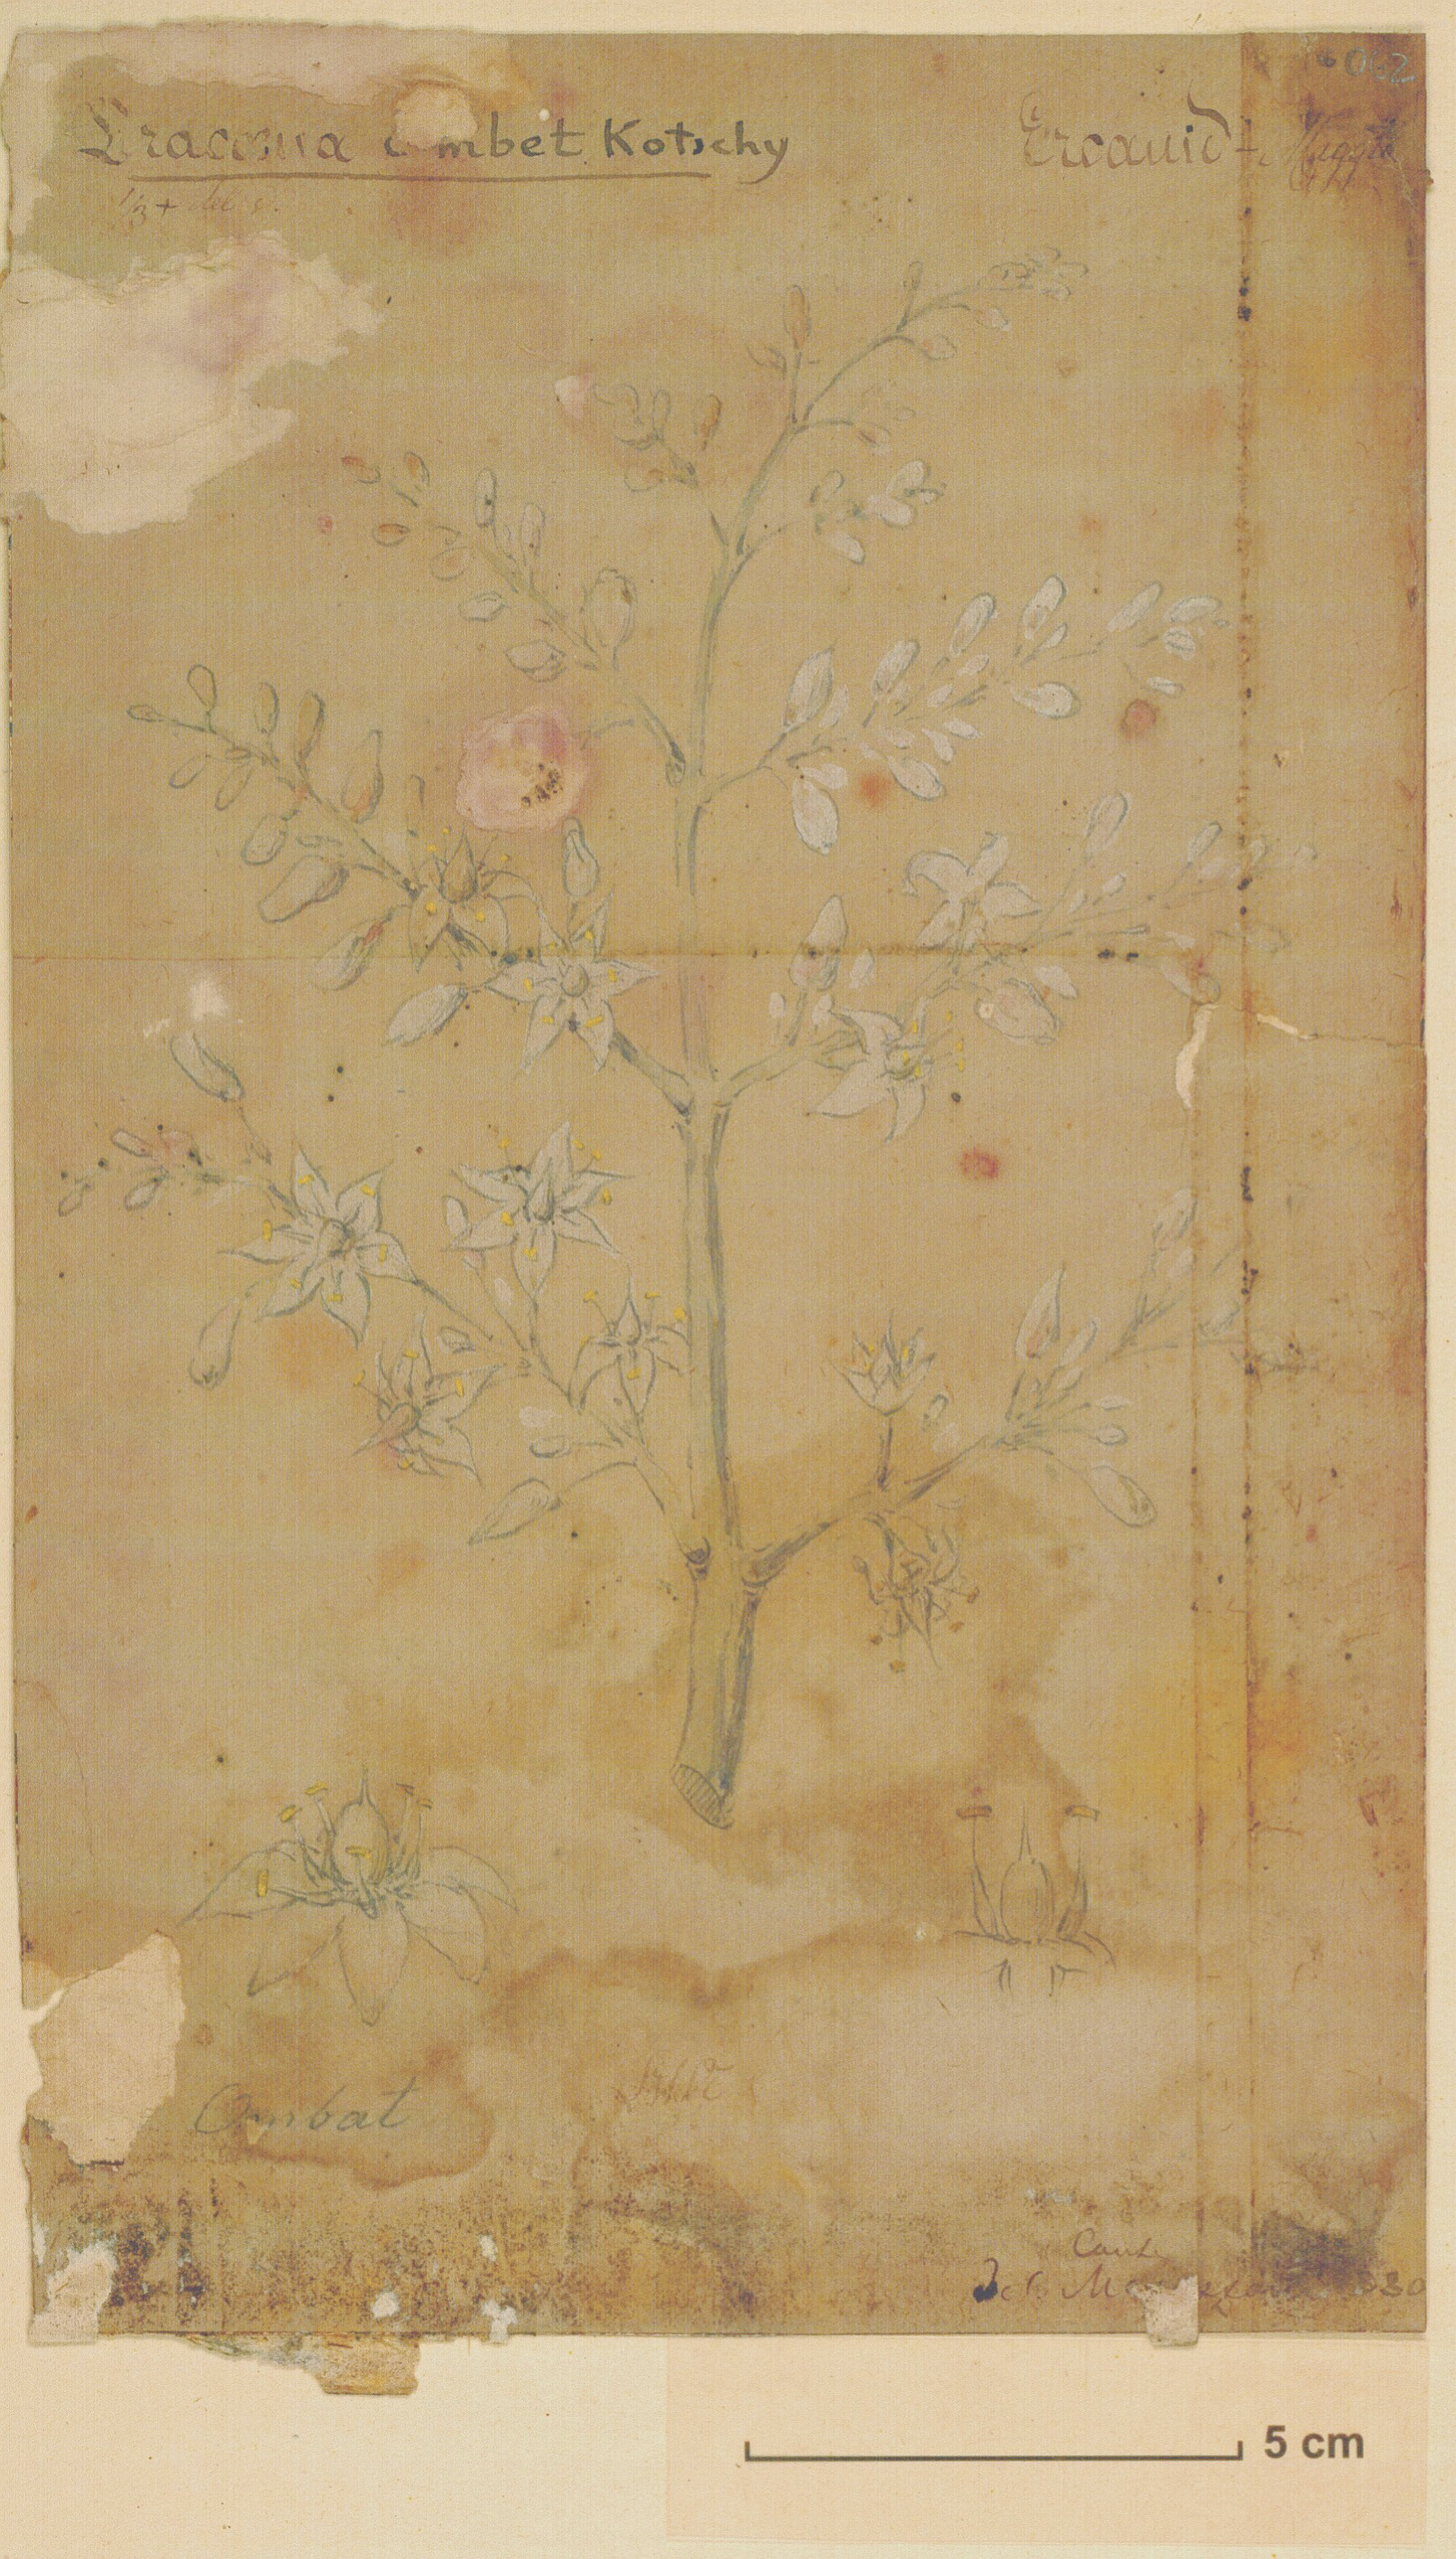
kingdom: Plantae
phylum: Tracheophyta
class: Liliopsida
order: Asparagales
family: Asparagaceae
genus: Dracaena
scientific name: Dracaena ombet
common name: Gabal elba dragon tree
